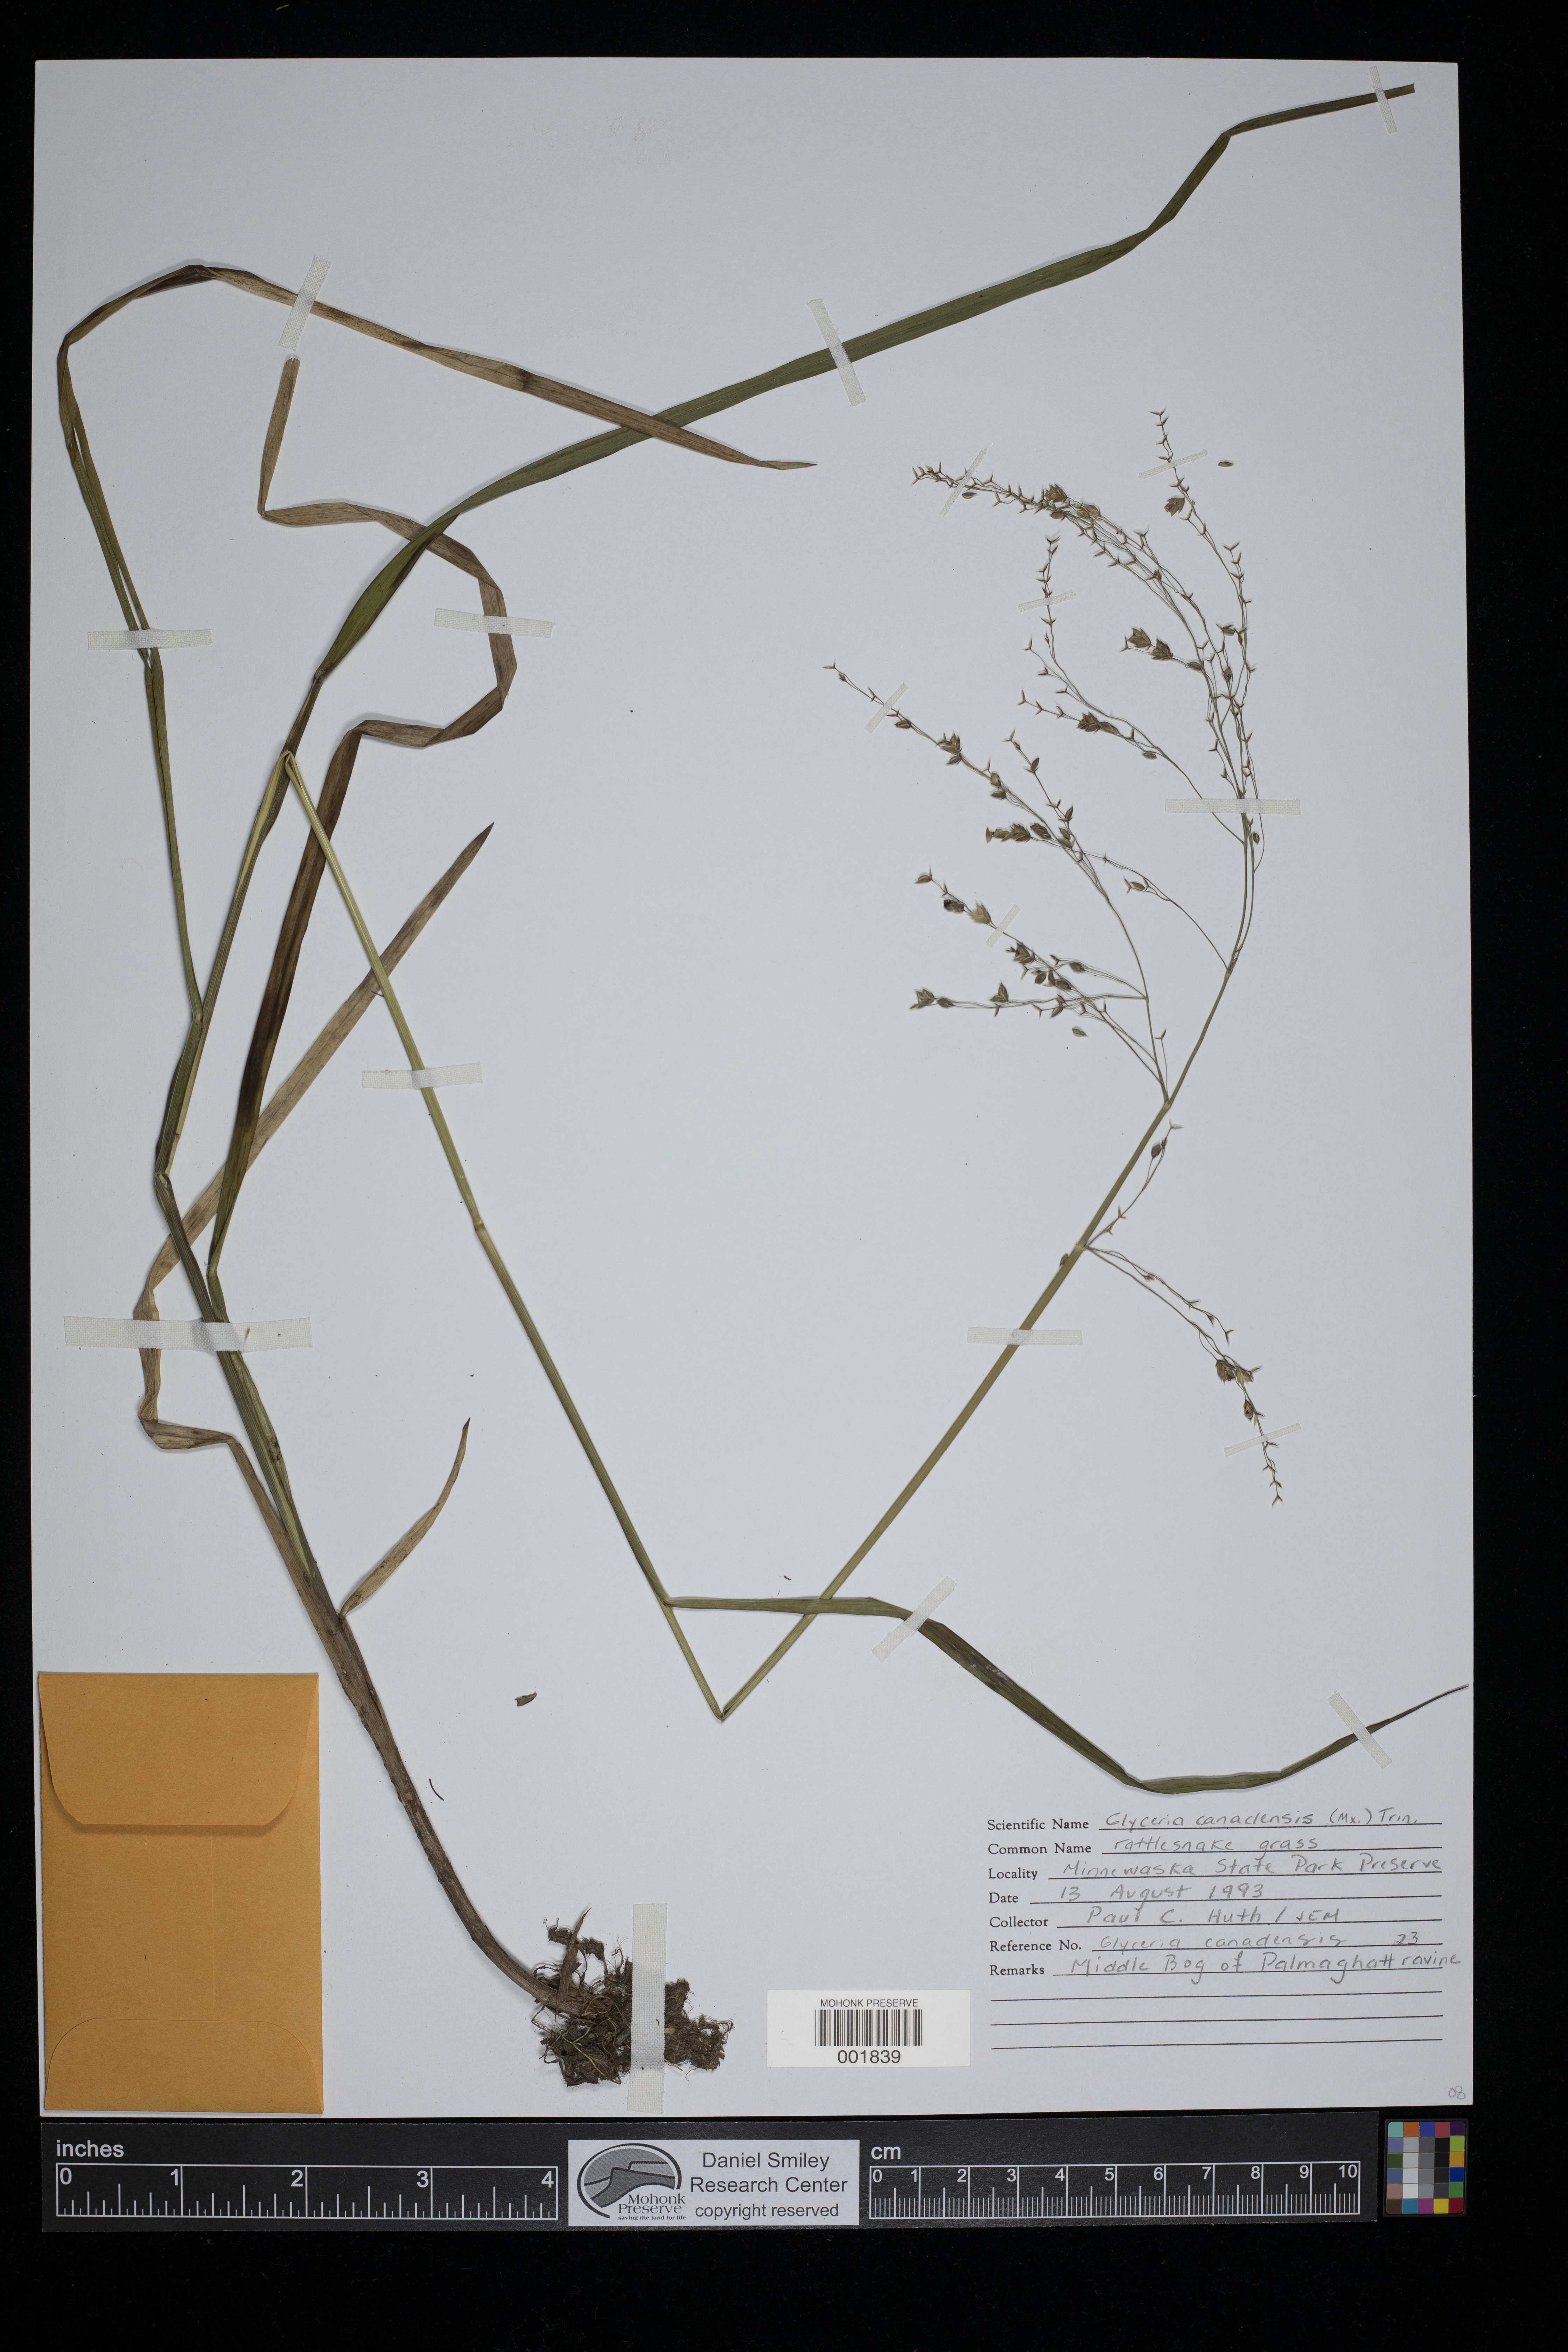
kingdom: Plantae
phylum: Tracheophyta
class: Liliopsida
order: Poales
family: Poaceae
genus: Glyceria
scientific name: Glyceria canadensis
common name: Canada mannagrass
